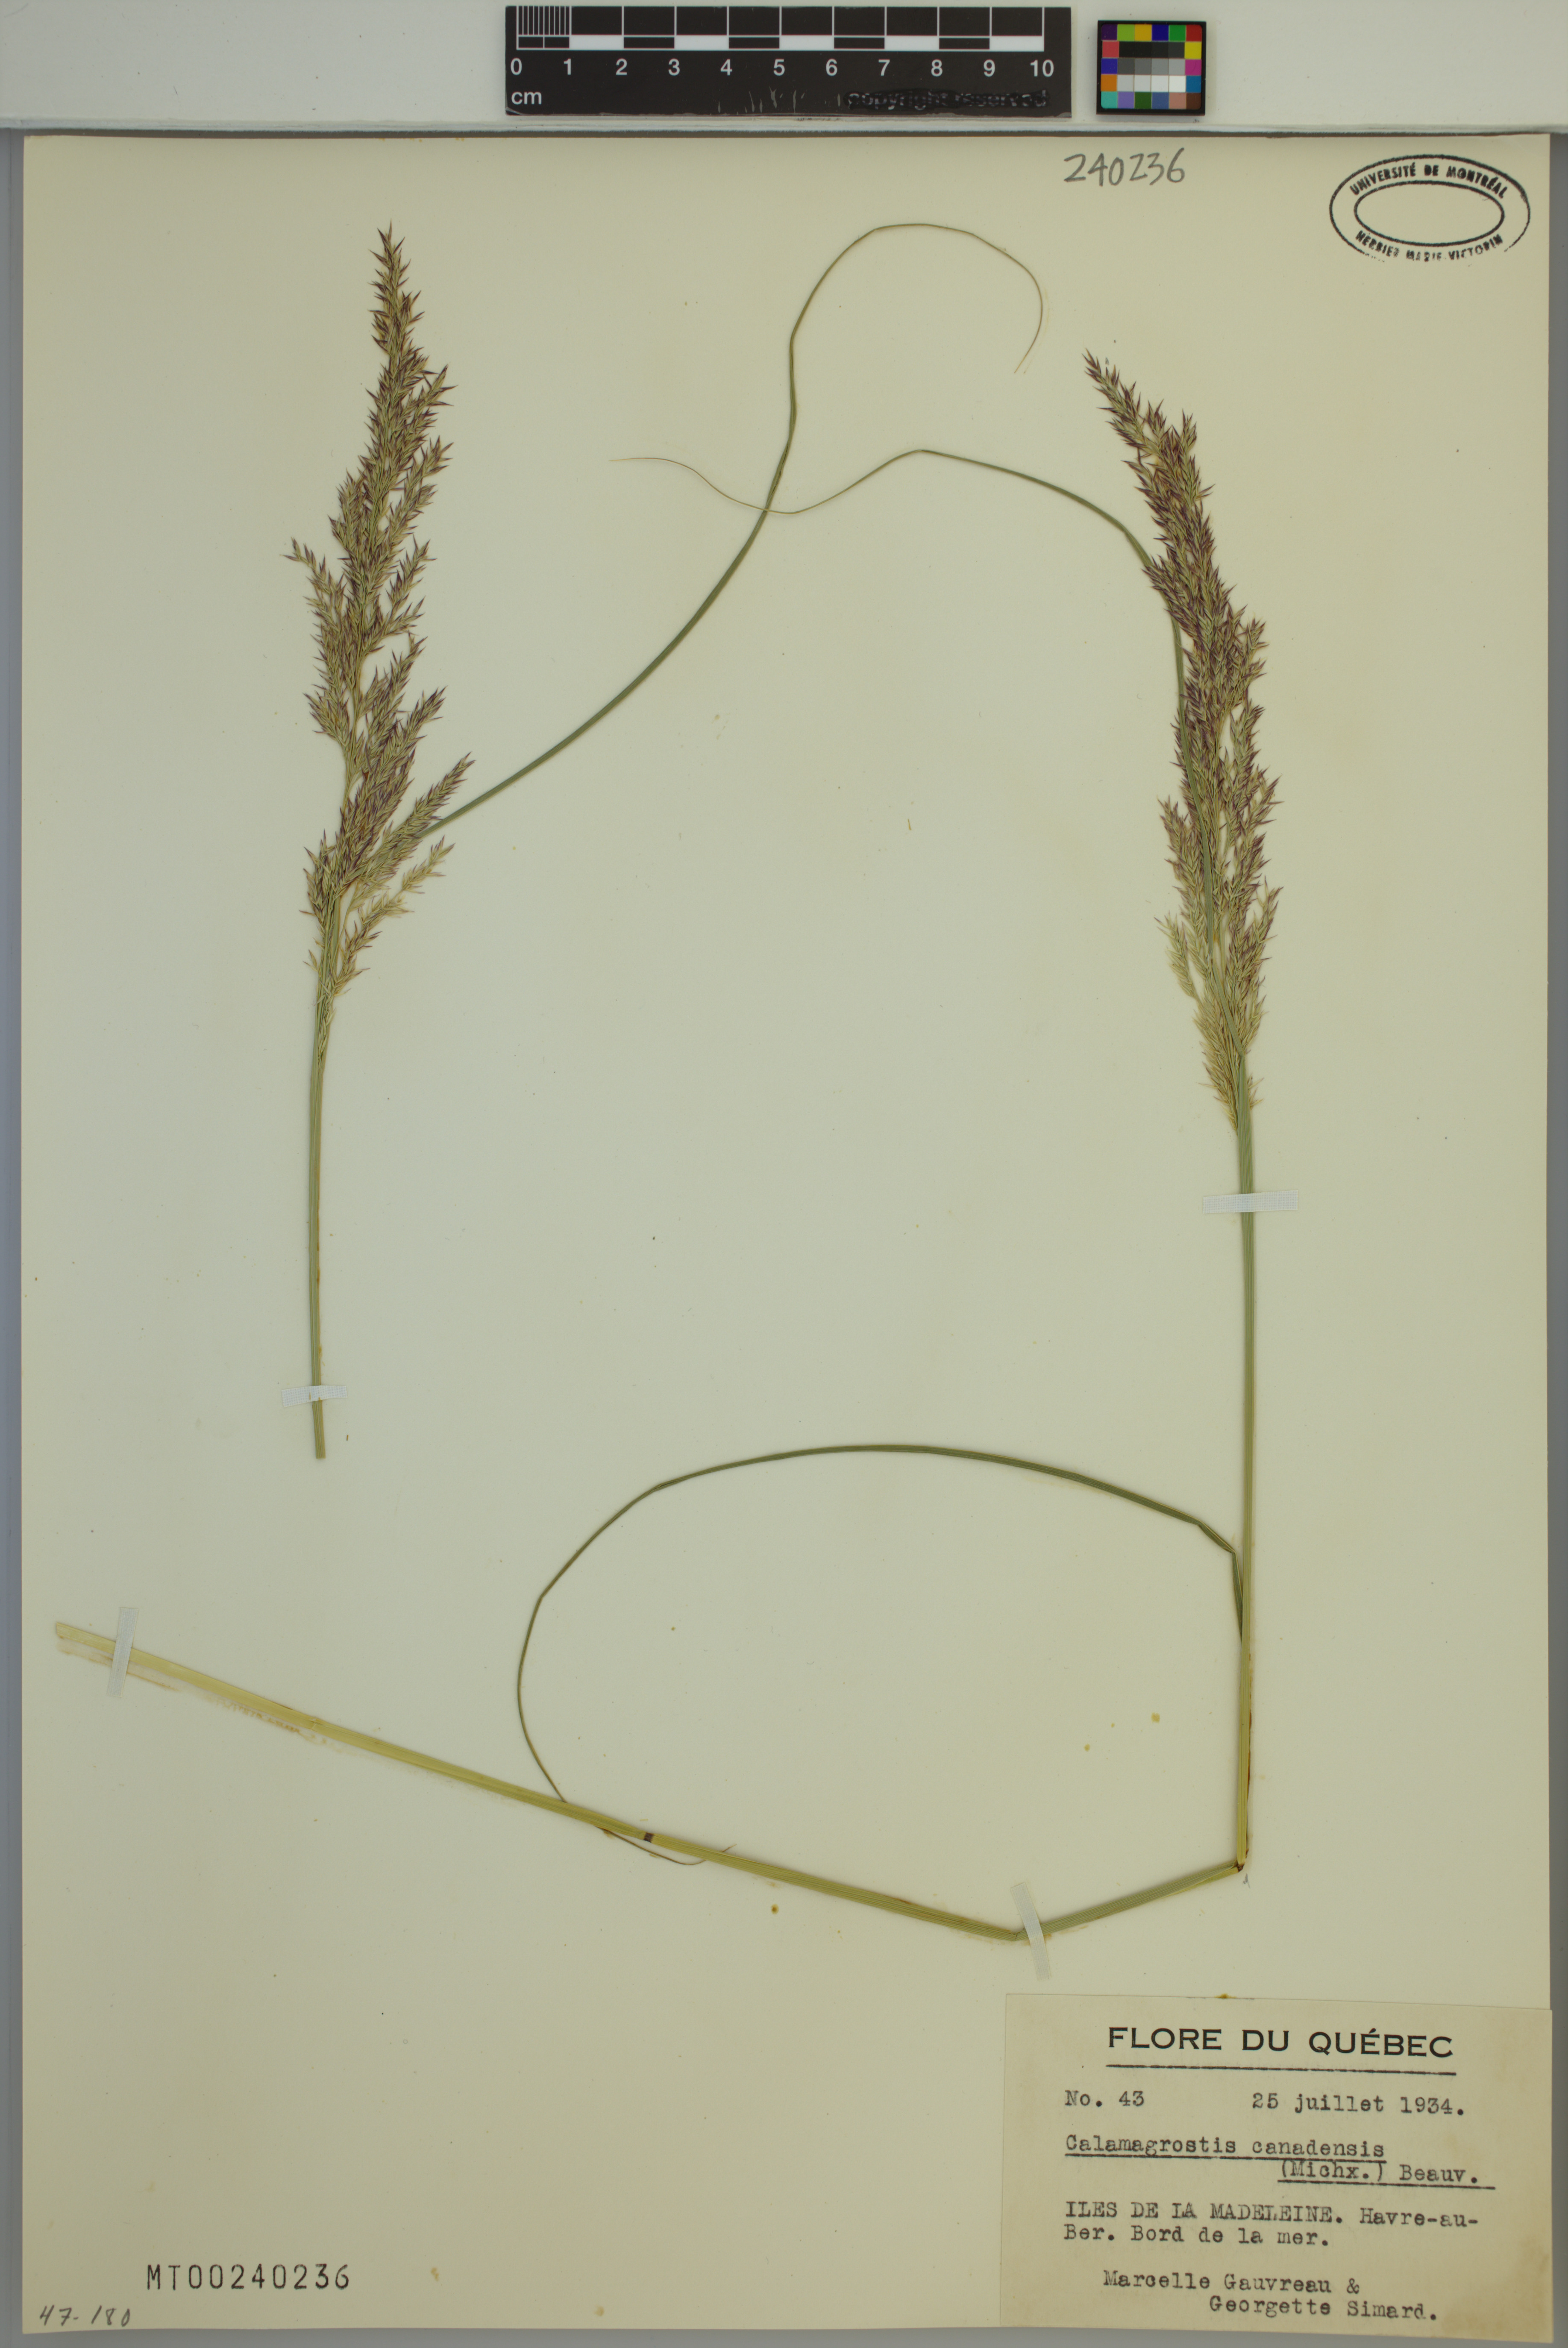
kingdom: Plantae
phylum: Tracheophyta
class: Liliopsida
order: Poales
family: Poaceae
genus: Calamagrostis
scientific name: Calamagrostis canadensis
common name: Canada bluejoint
